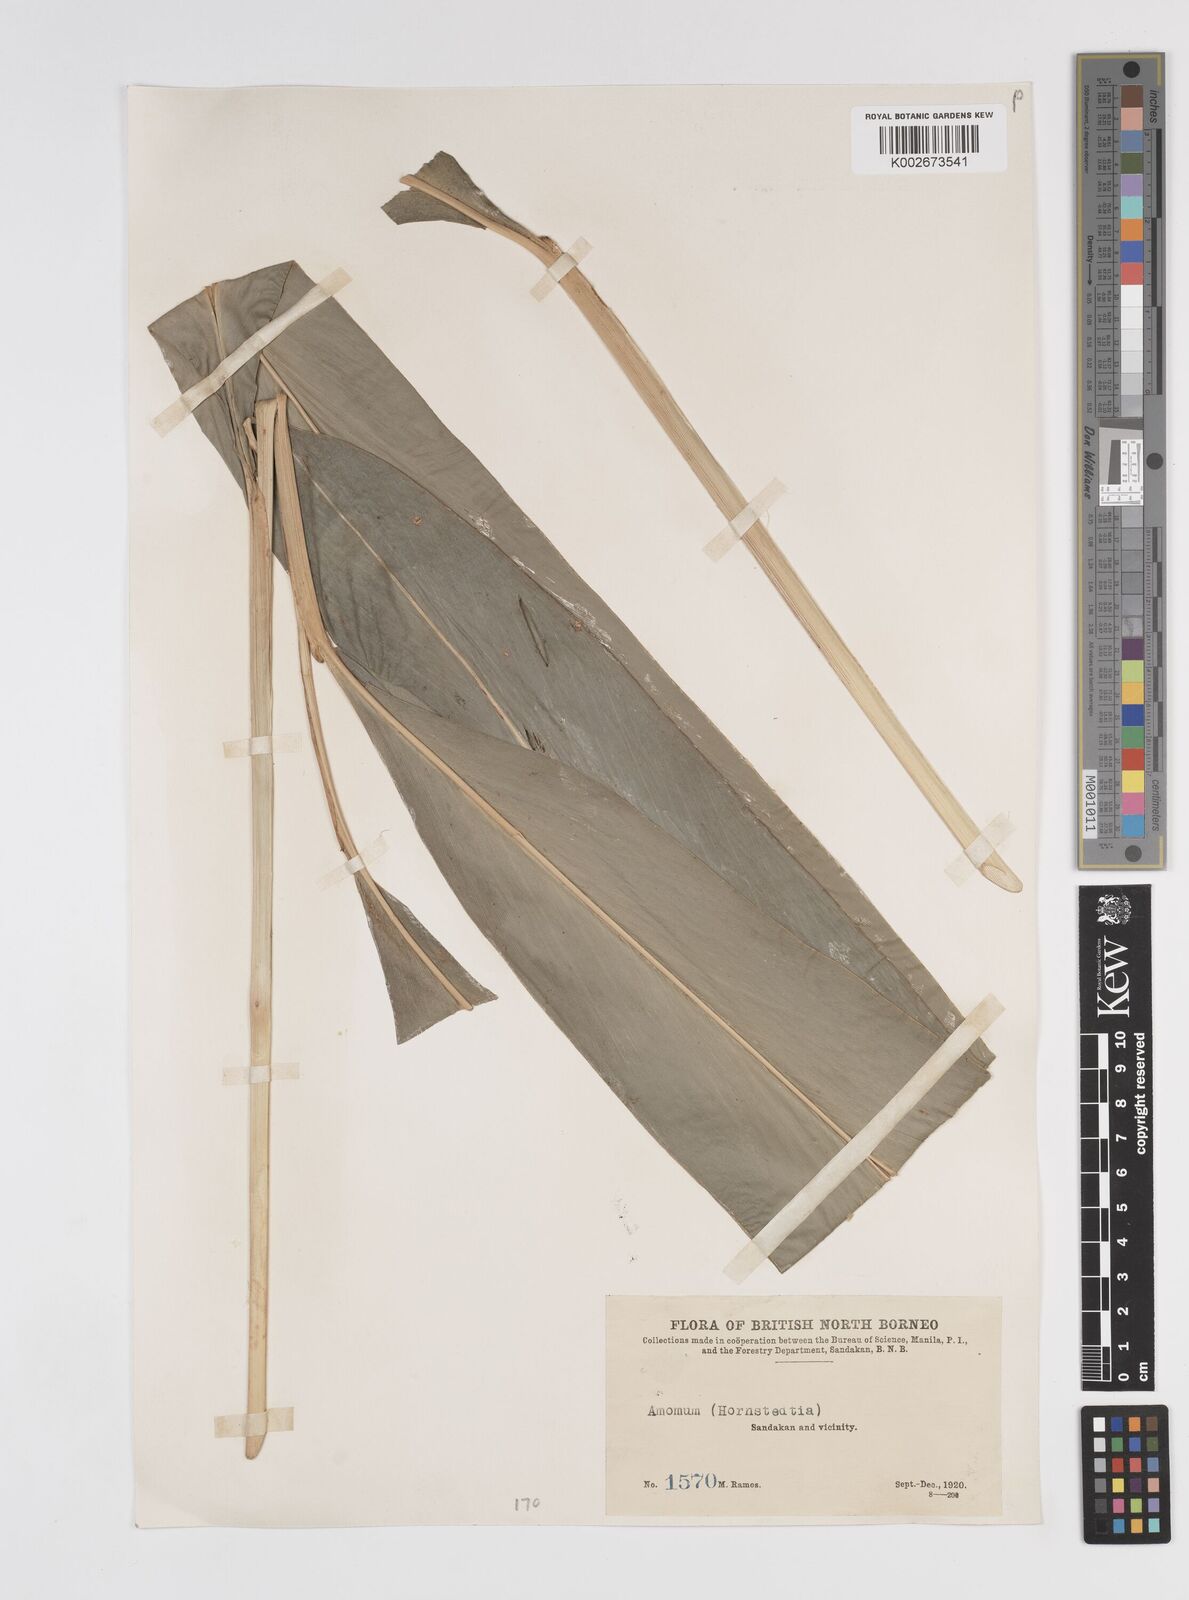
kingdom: Plantae
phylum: Tracheophyta
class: Liliopsida
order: Zingiberales
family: Zingiberaceae
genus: Amomum
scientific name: Amomum
